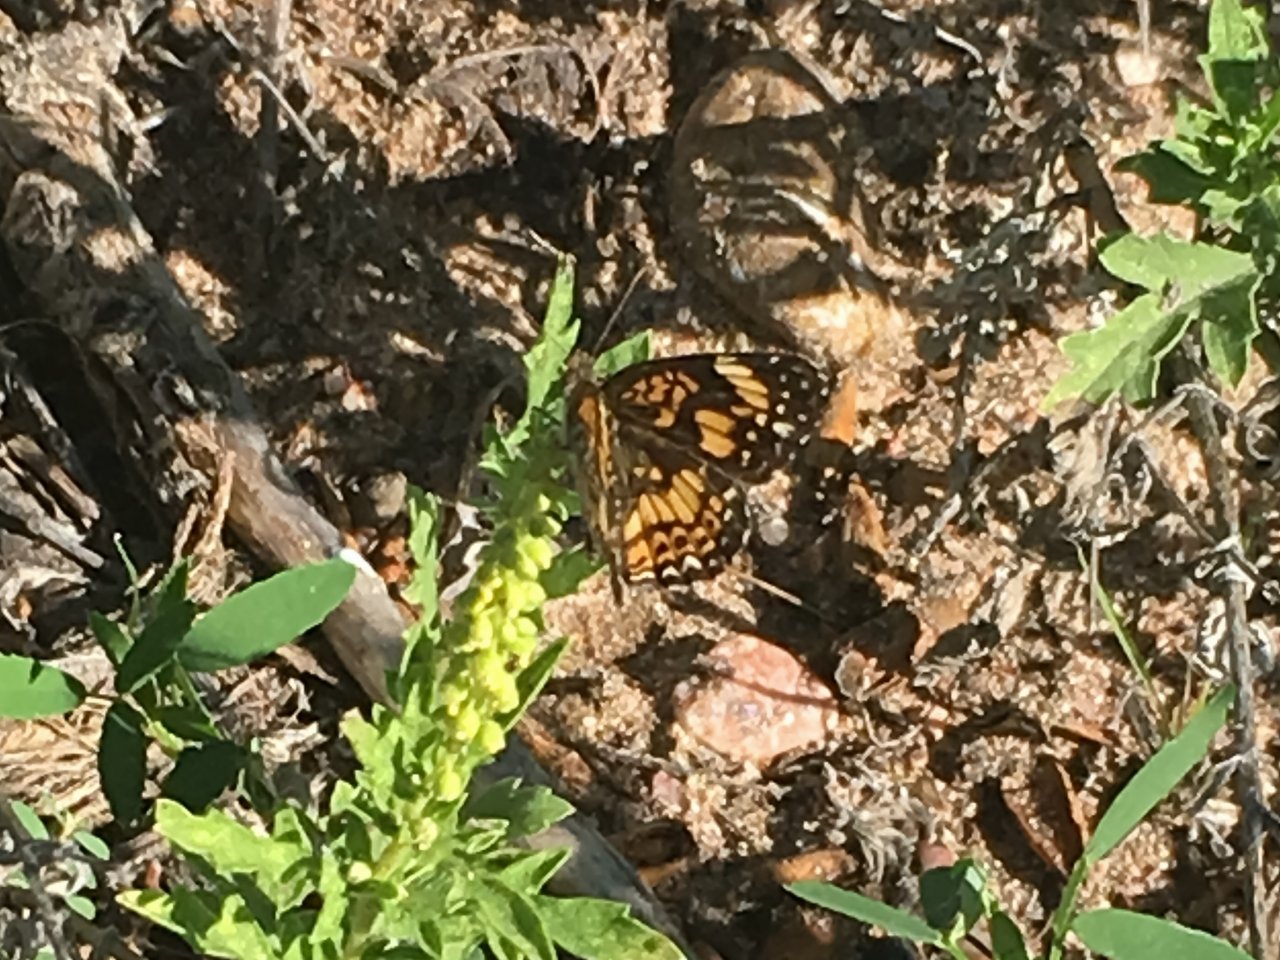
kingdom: Animalia
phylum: Arthropoda
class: Insecta
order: Lepidoptera
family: Nymphalidae
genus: Chlosyne
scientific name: Chlosyne gorgone
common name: Gorgone Checkerspot
